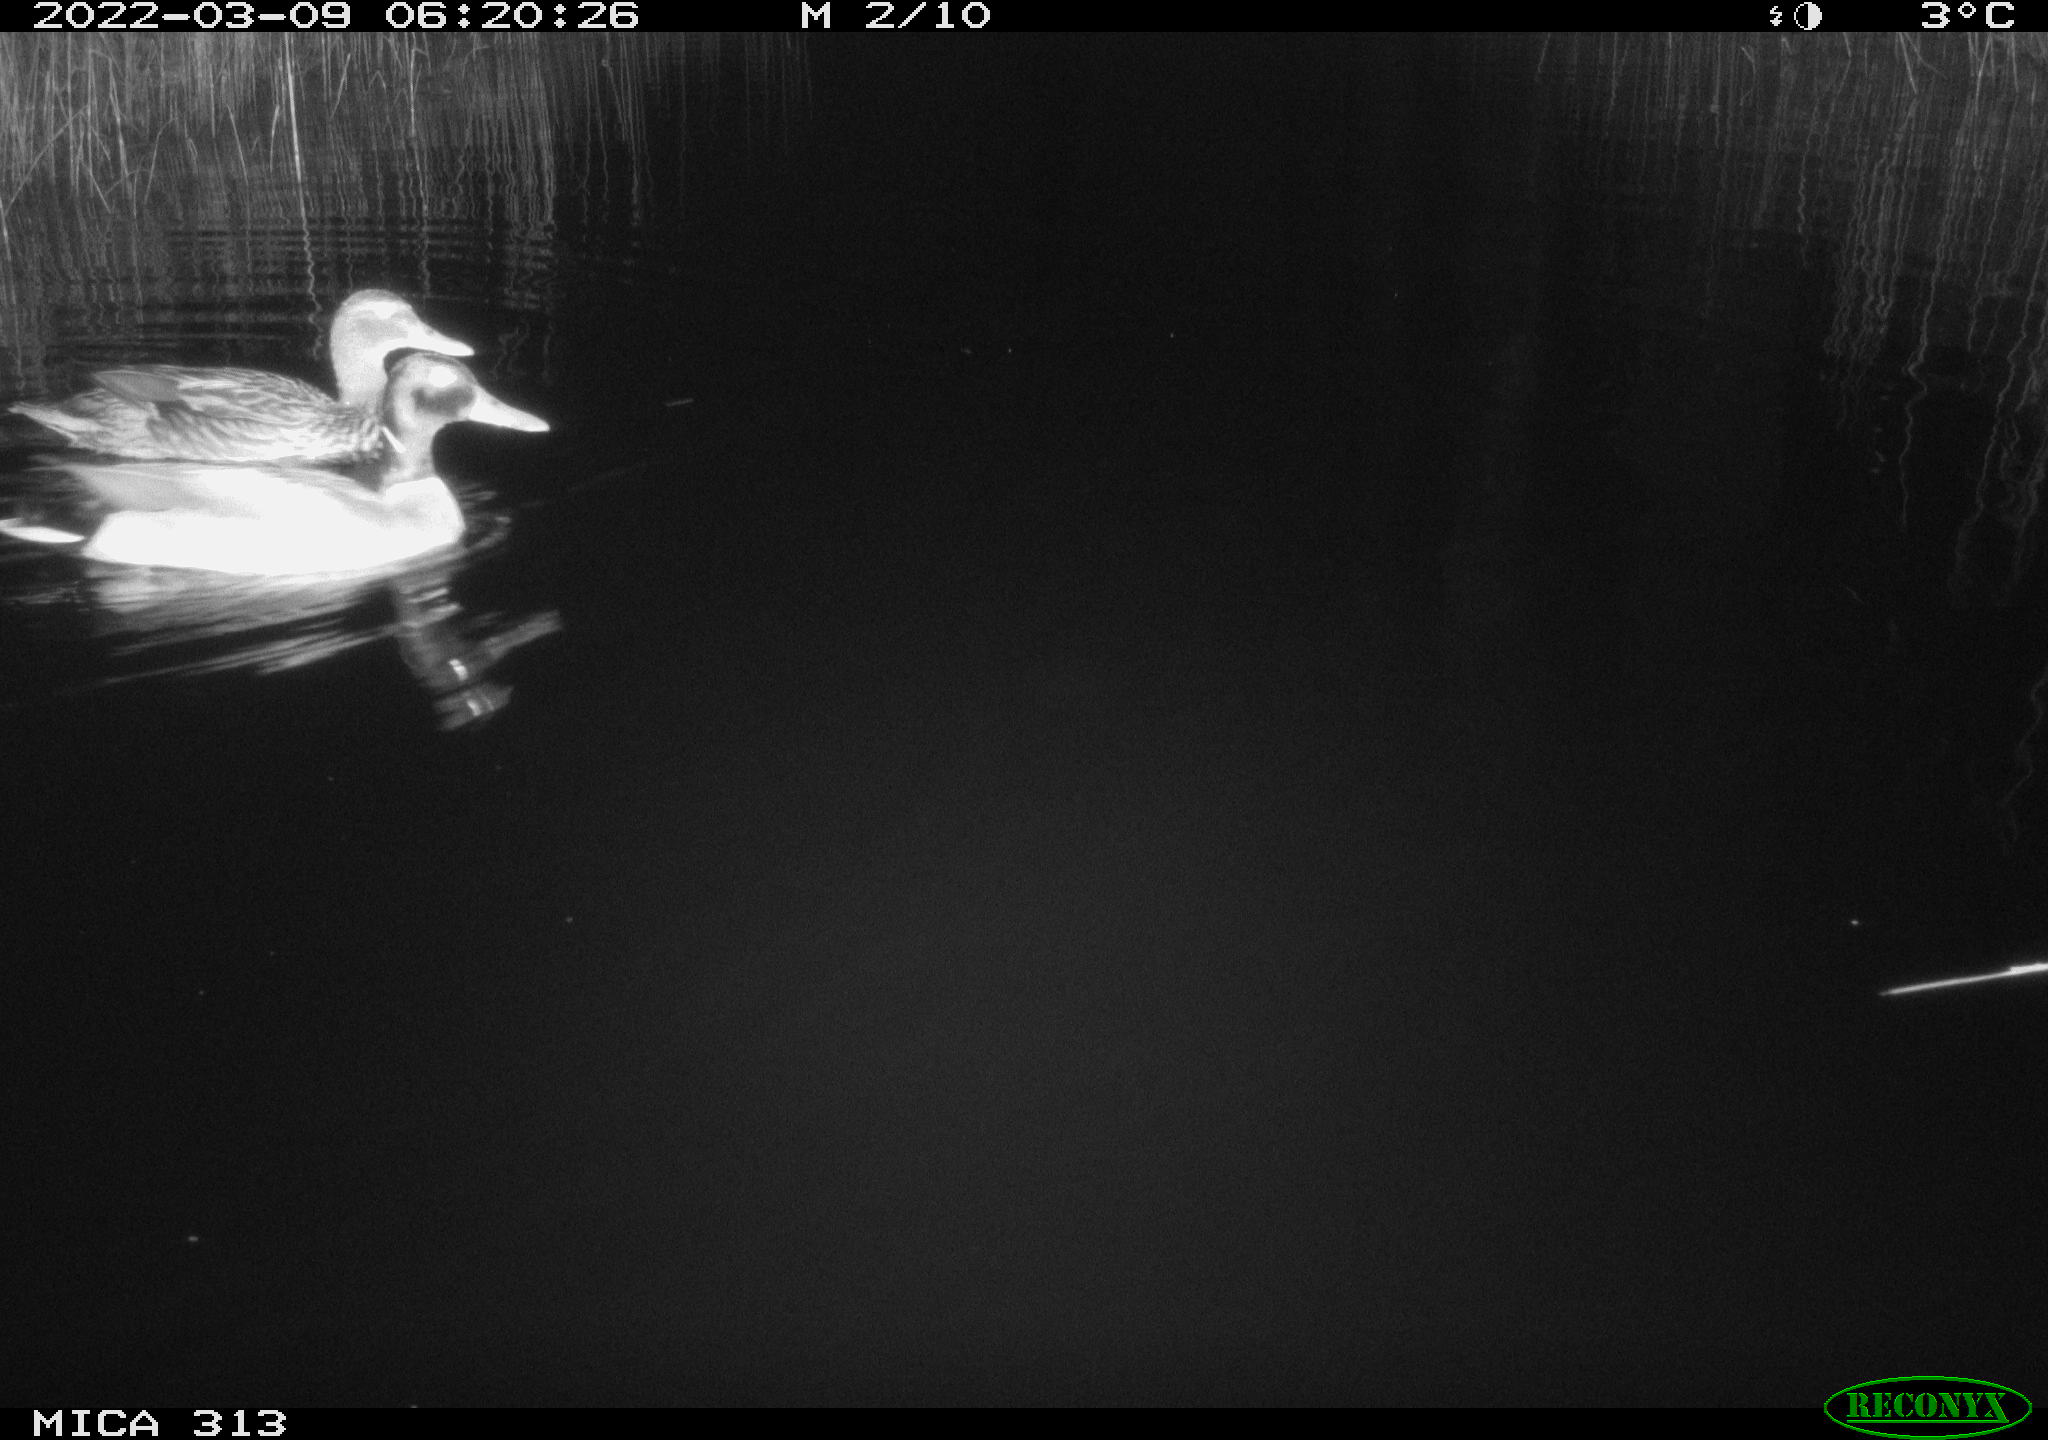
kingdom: Animalia
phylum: Chordata
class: Aves
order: Anseriformes
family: Anatidae
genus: Anas
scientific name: Anas platyrhynchos
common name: Mallard
